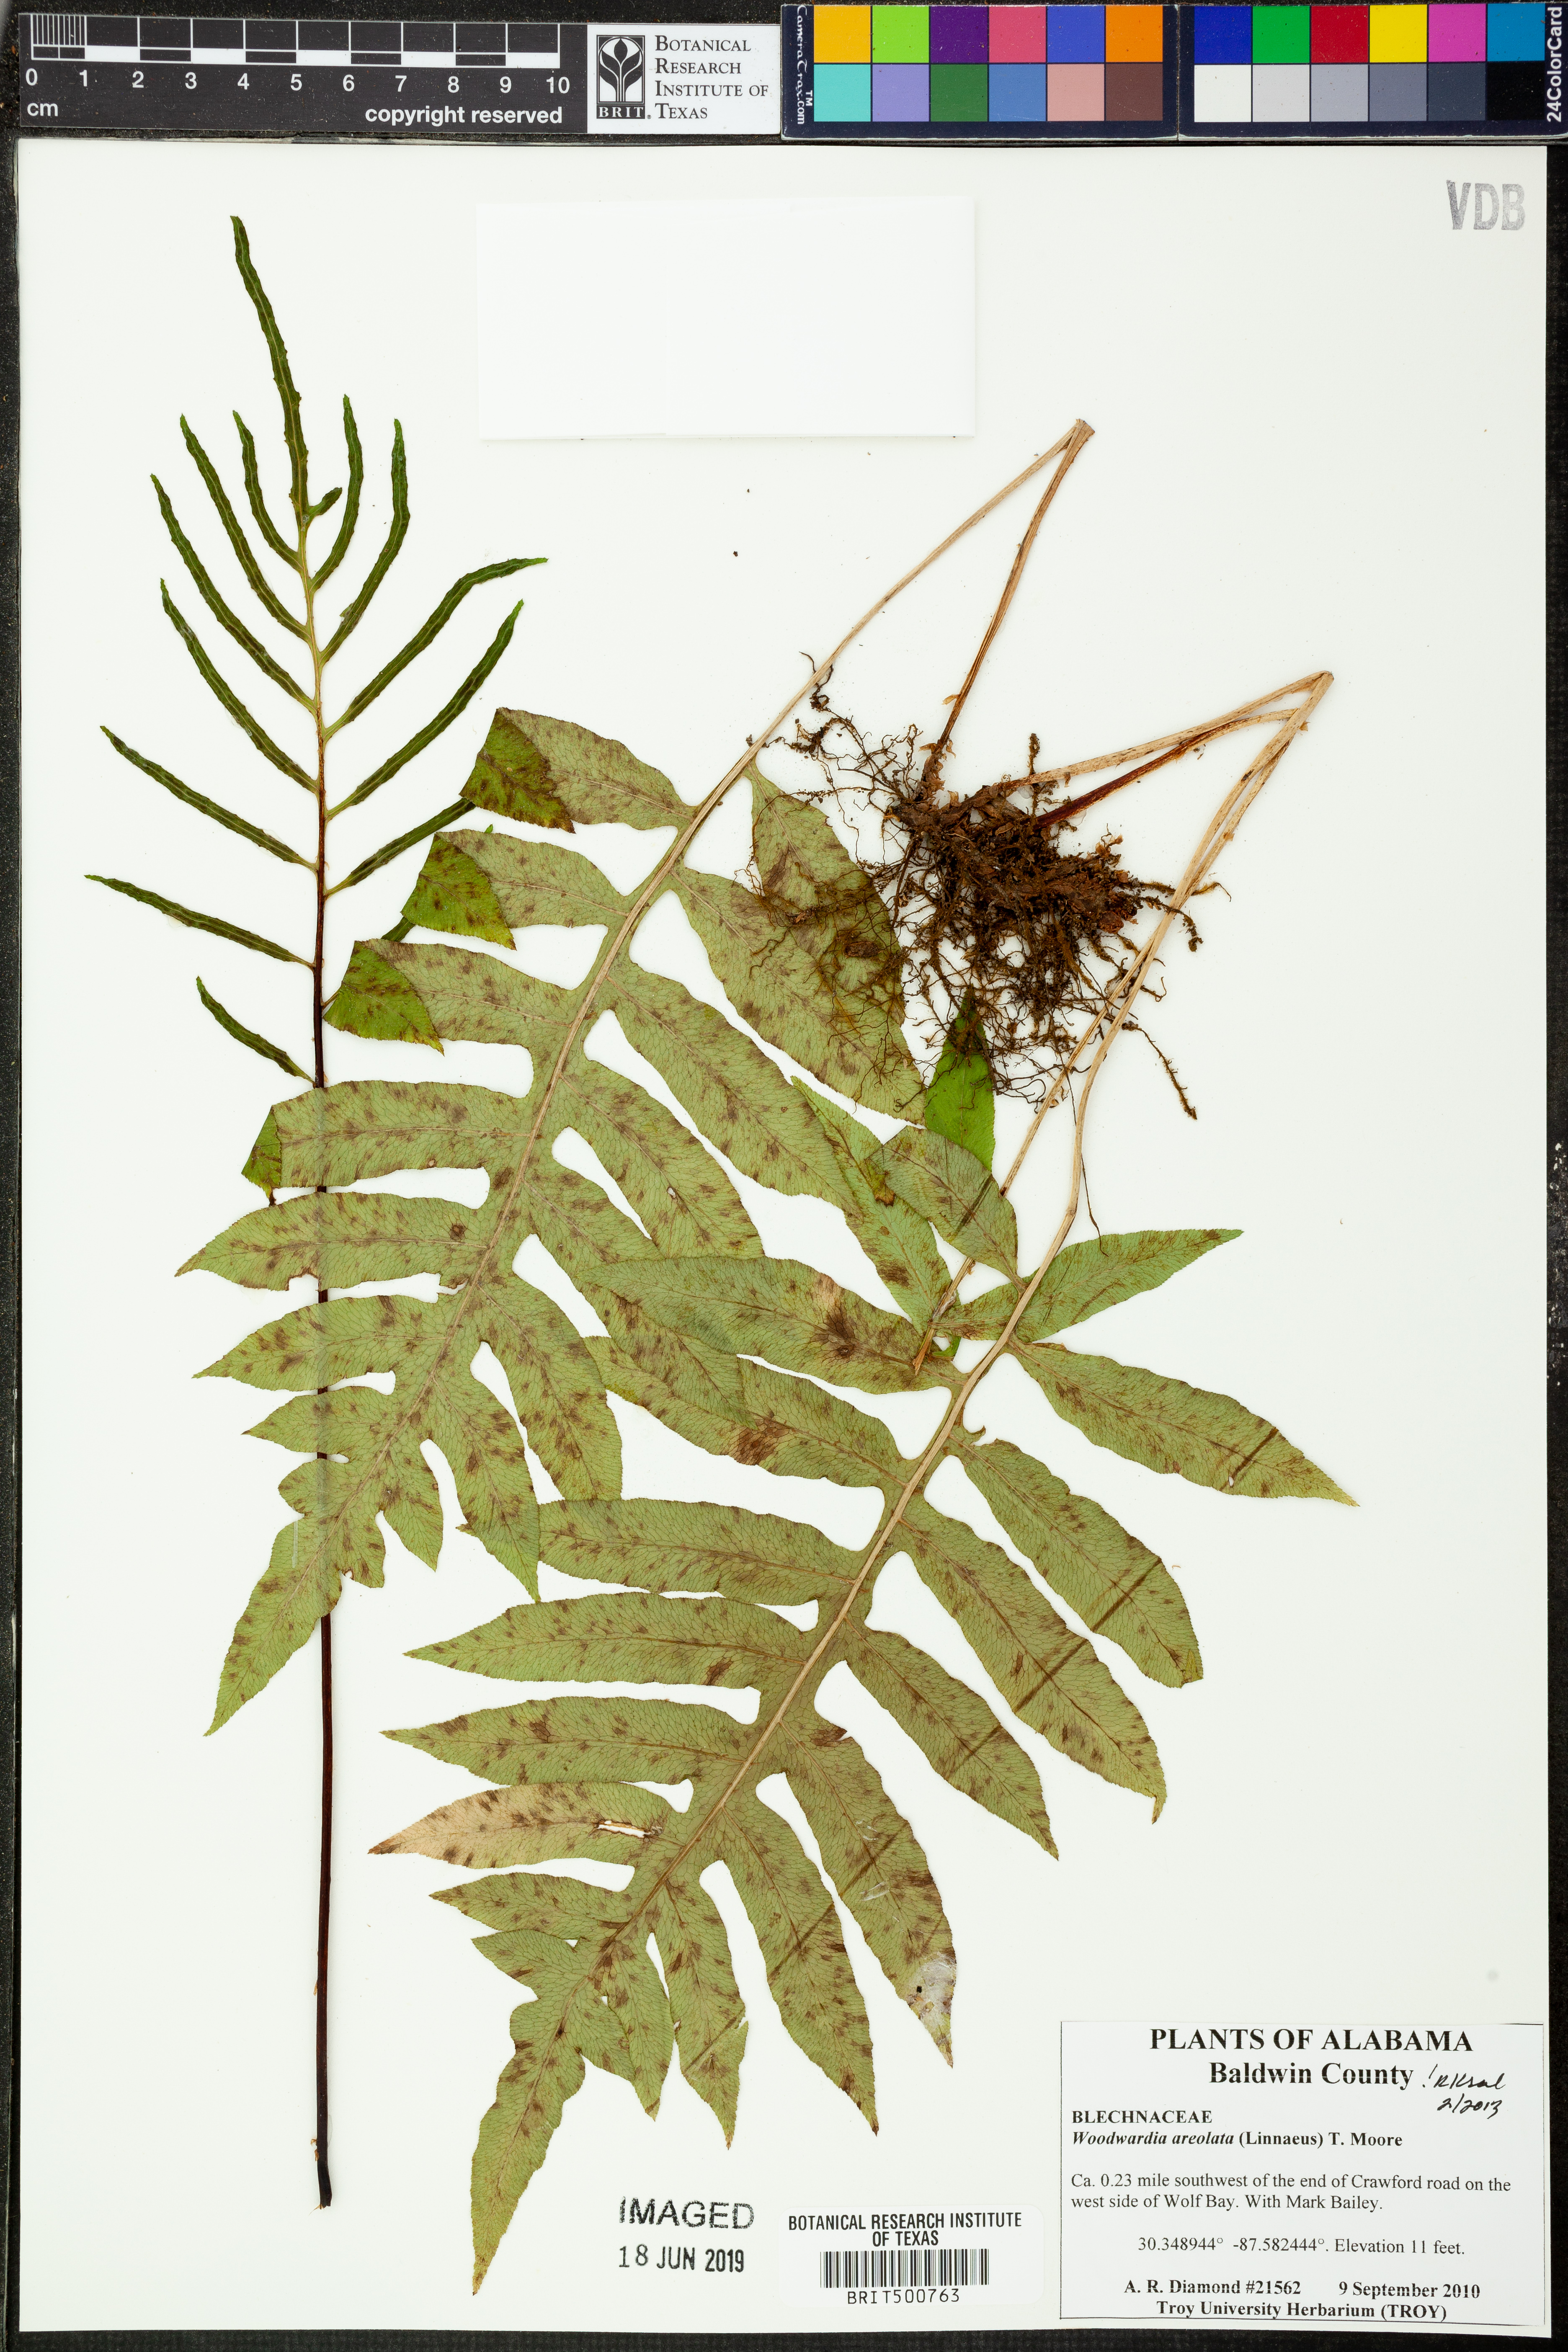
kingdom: Plantae
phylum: Tracheophyta
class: Polypodiopsida
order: Polypodiales
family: Blechnaceae
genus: Lorinseria
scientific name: Lorinseria areolata
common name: Dwarf chain fern
